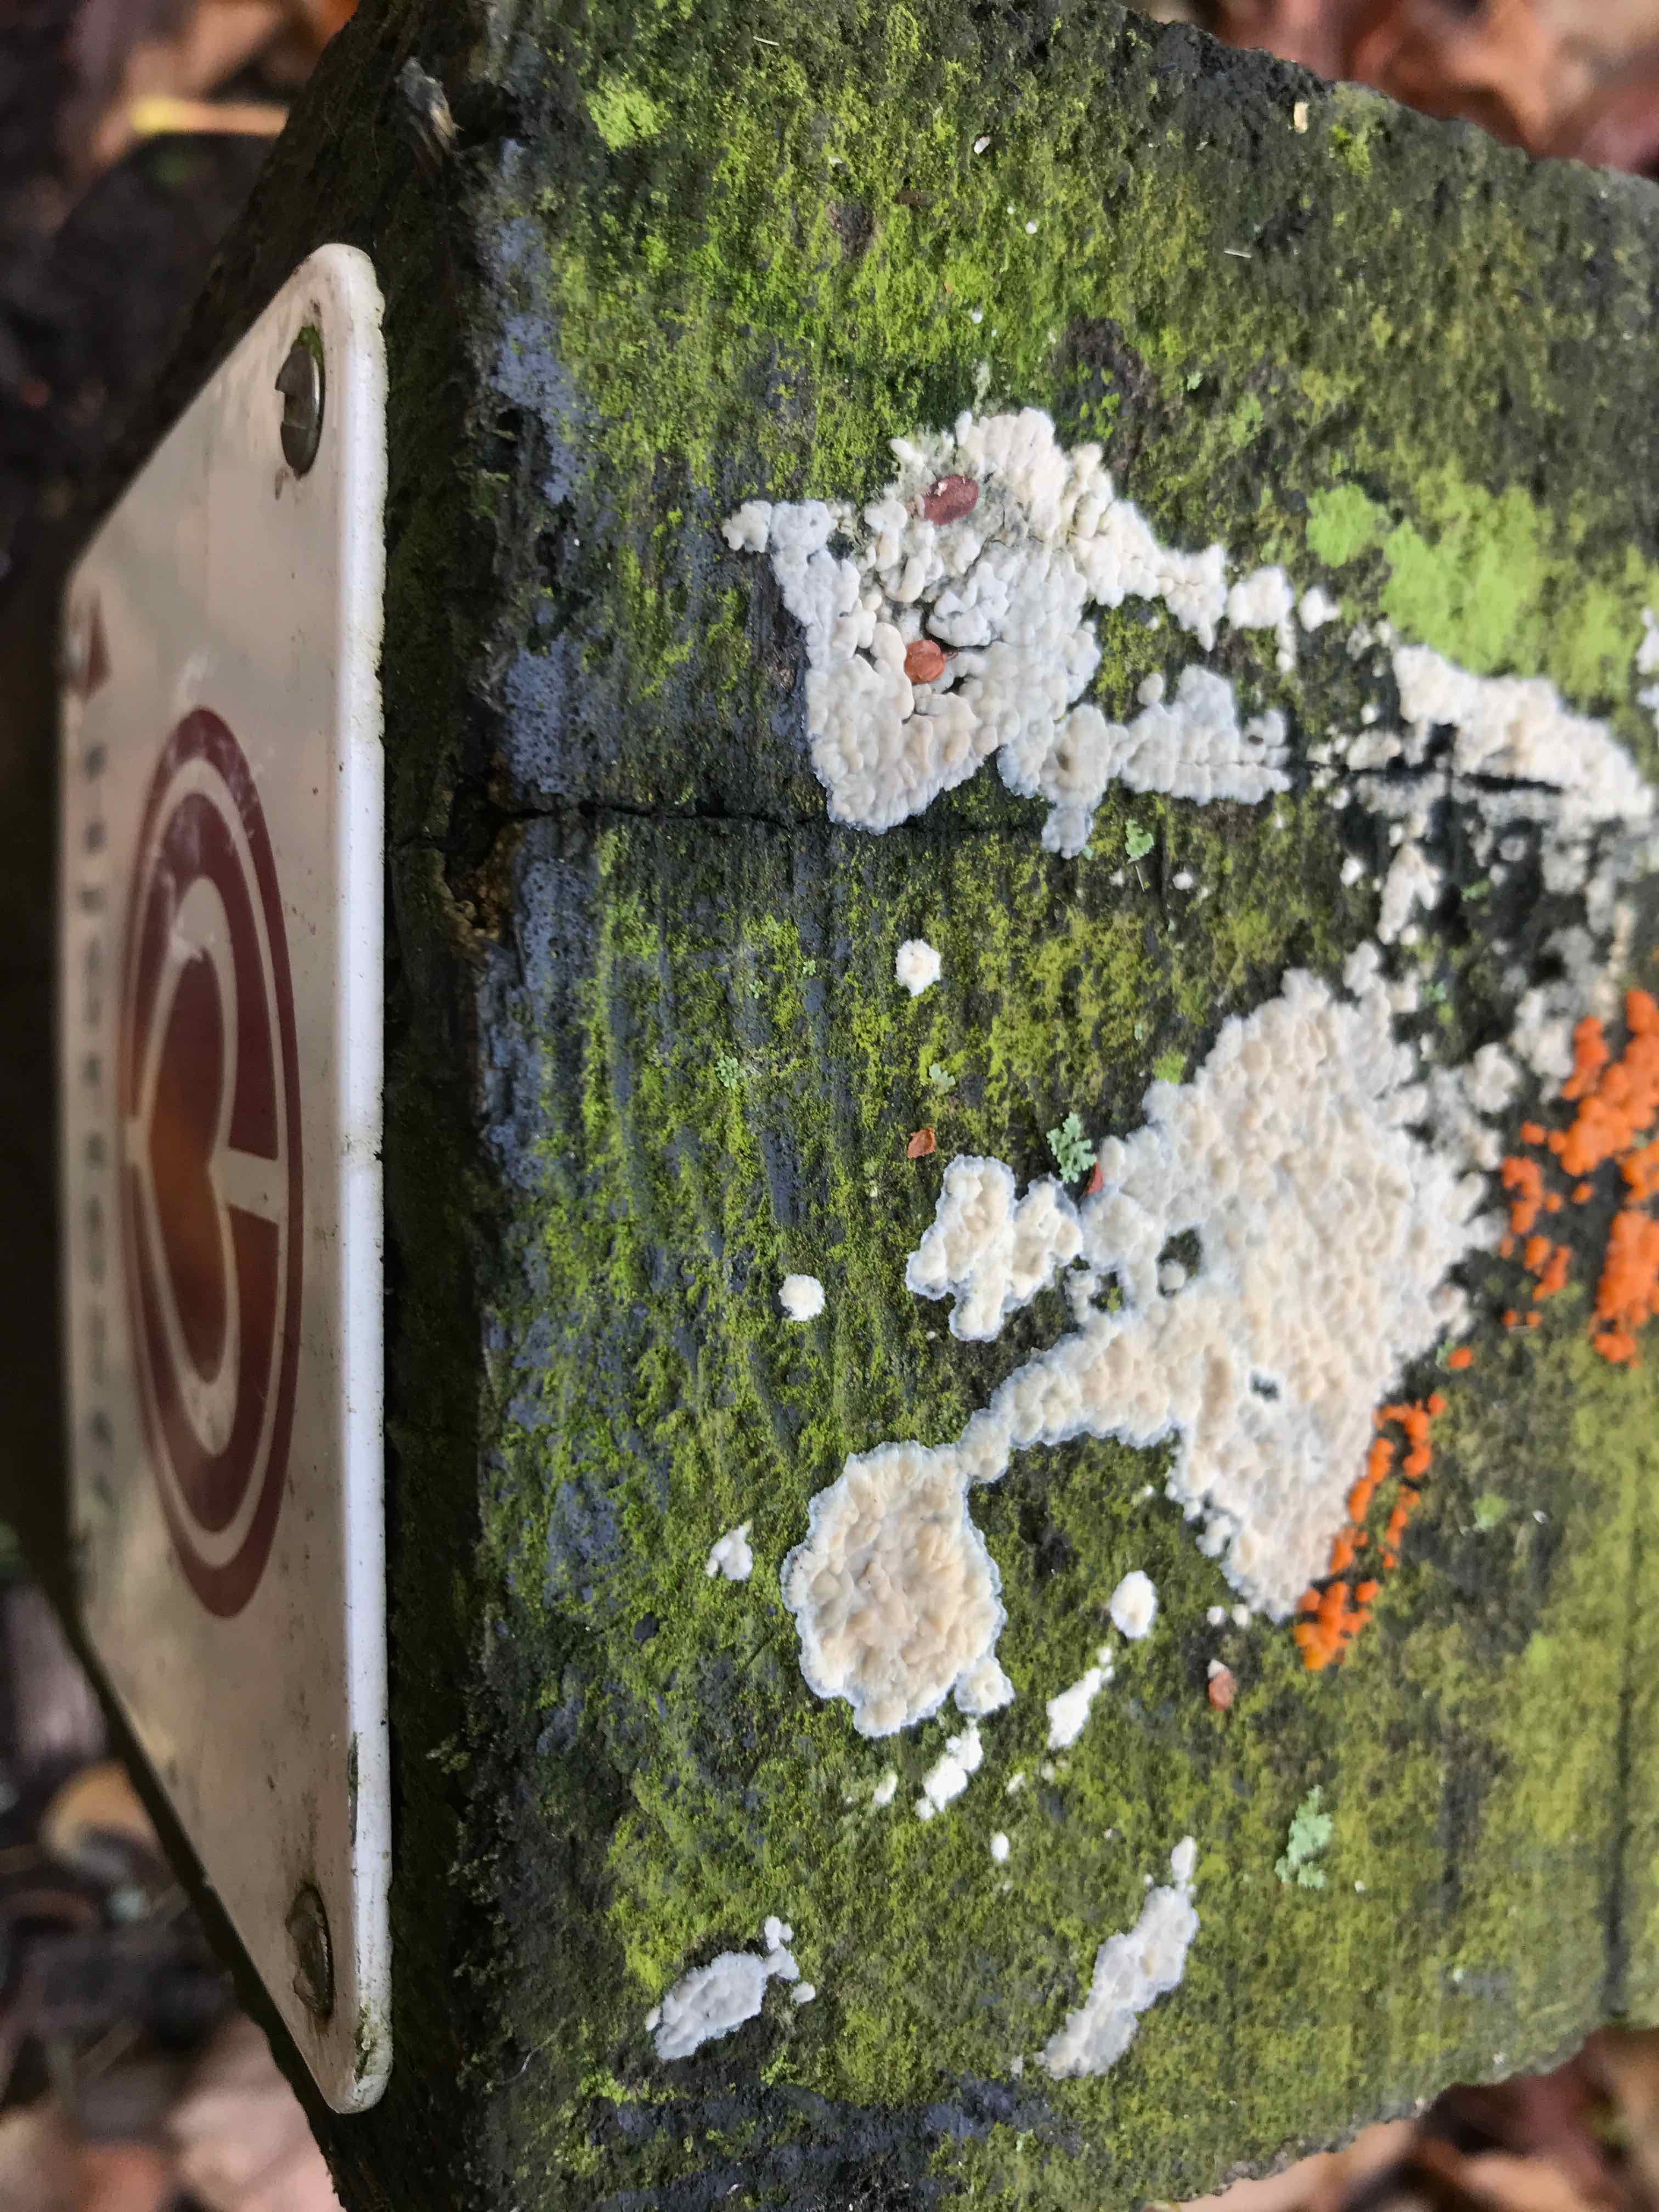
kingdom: Fungi
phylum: Basidiomycota
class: Agaricomycetes
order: Agaricales
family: Physalacriaceae
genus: Cylindrobasidium
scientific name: Cylindrobasidium evolvens
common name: sprækkehinde
